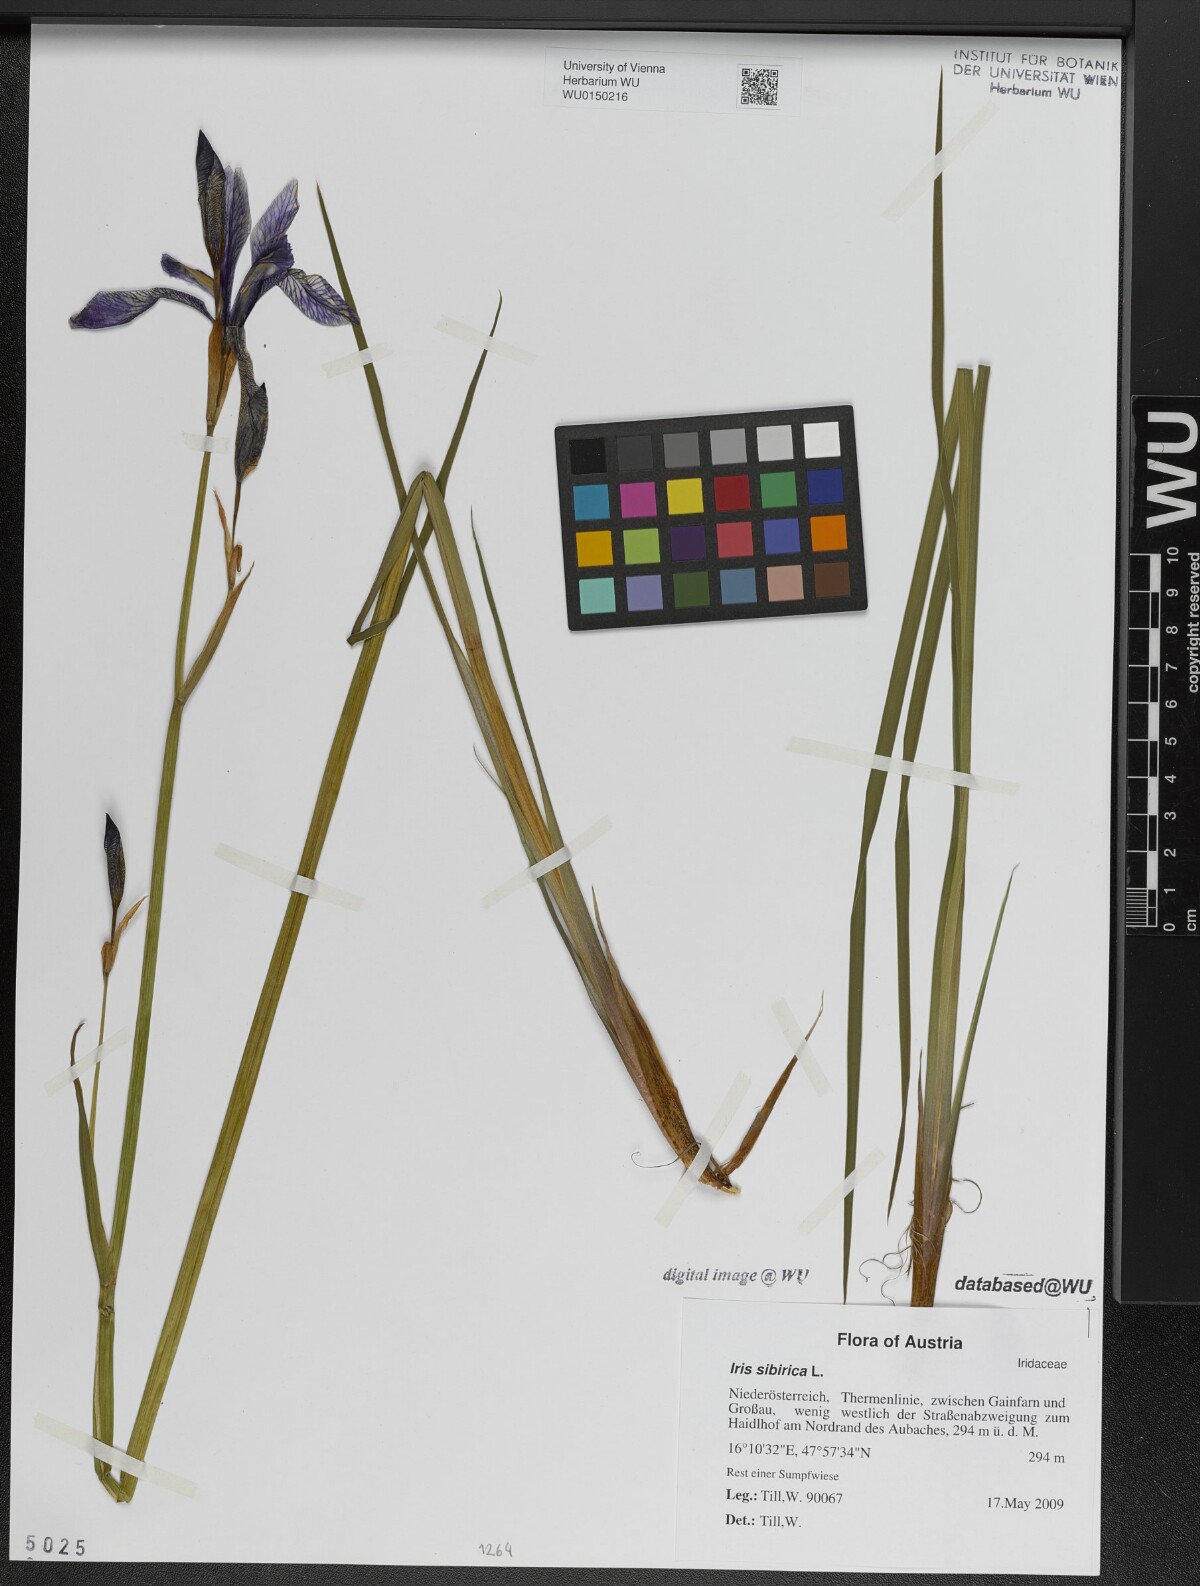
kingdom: Plantae
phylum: Tracheophyta
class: Liliopsida
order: Asparagales
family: Iridaceae
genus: Iris
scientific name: Iris sibirica
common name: Siberian iris
